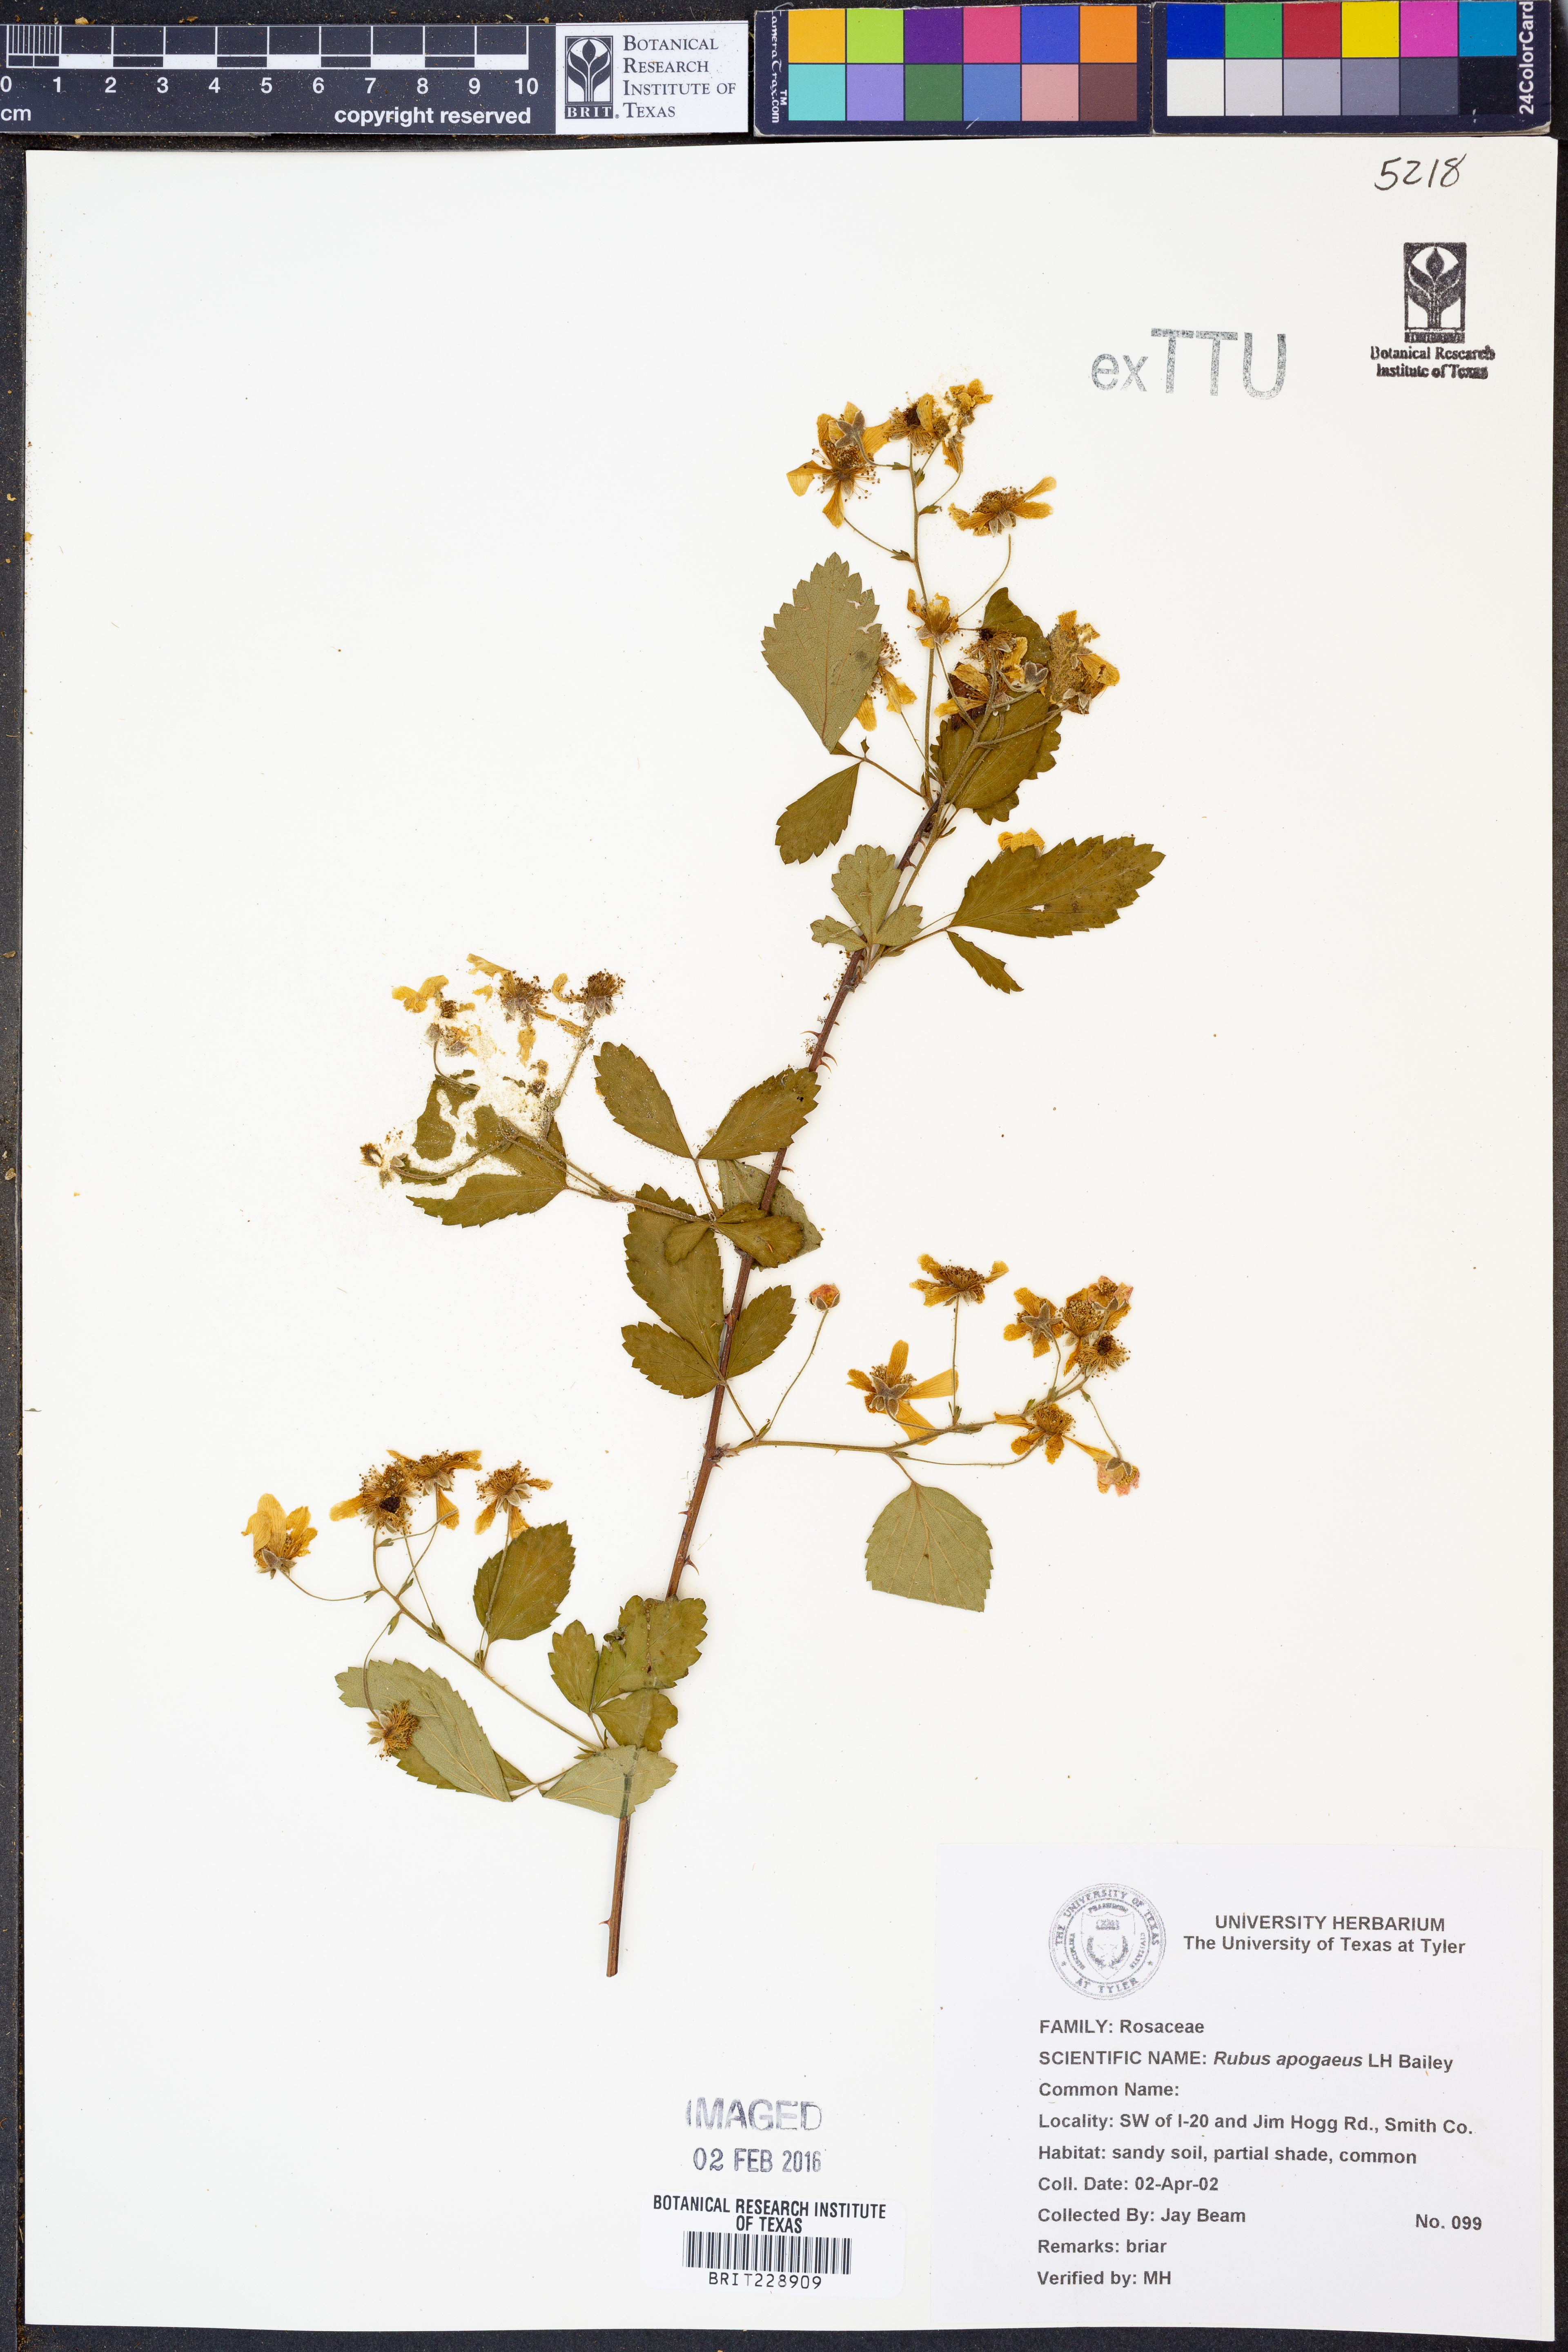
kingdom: Plantae
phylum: Tracheophyta
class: Magnoliopsida
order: Rosales
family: Rosaceae
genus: Rubus
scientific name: Rubus apogaeus
